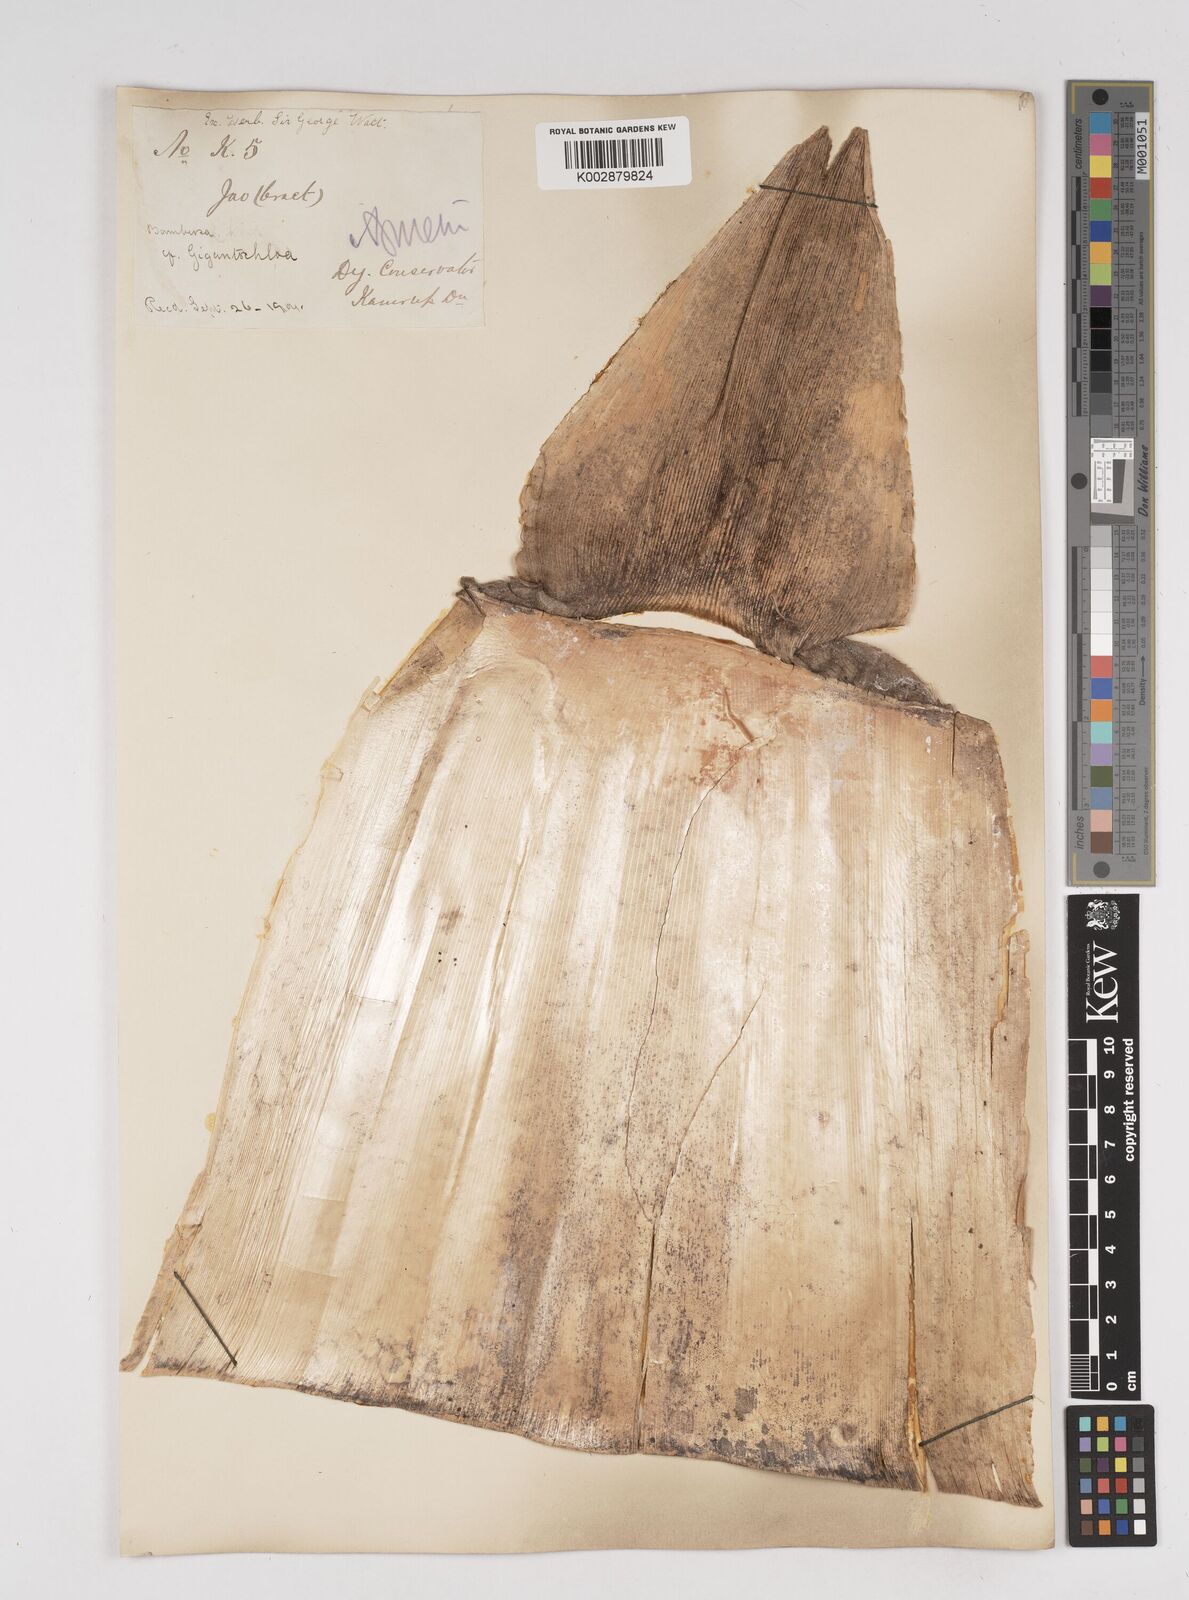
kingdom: Plantae
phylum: Tracheophyta
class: Liliopsida
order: Poales
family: Poaceae
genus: Gigantochloa
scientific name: Gigantochloa
